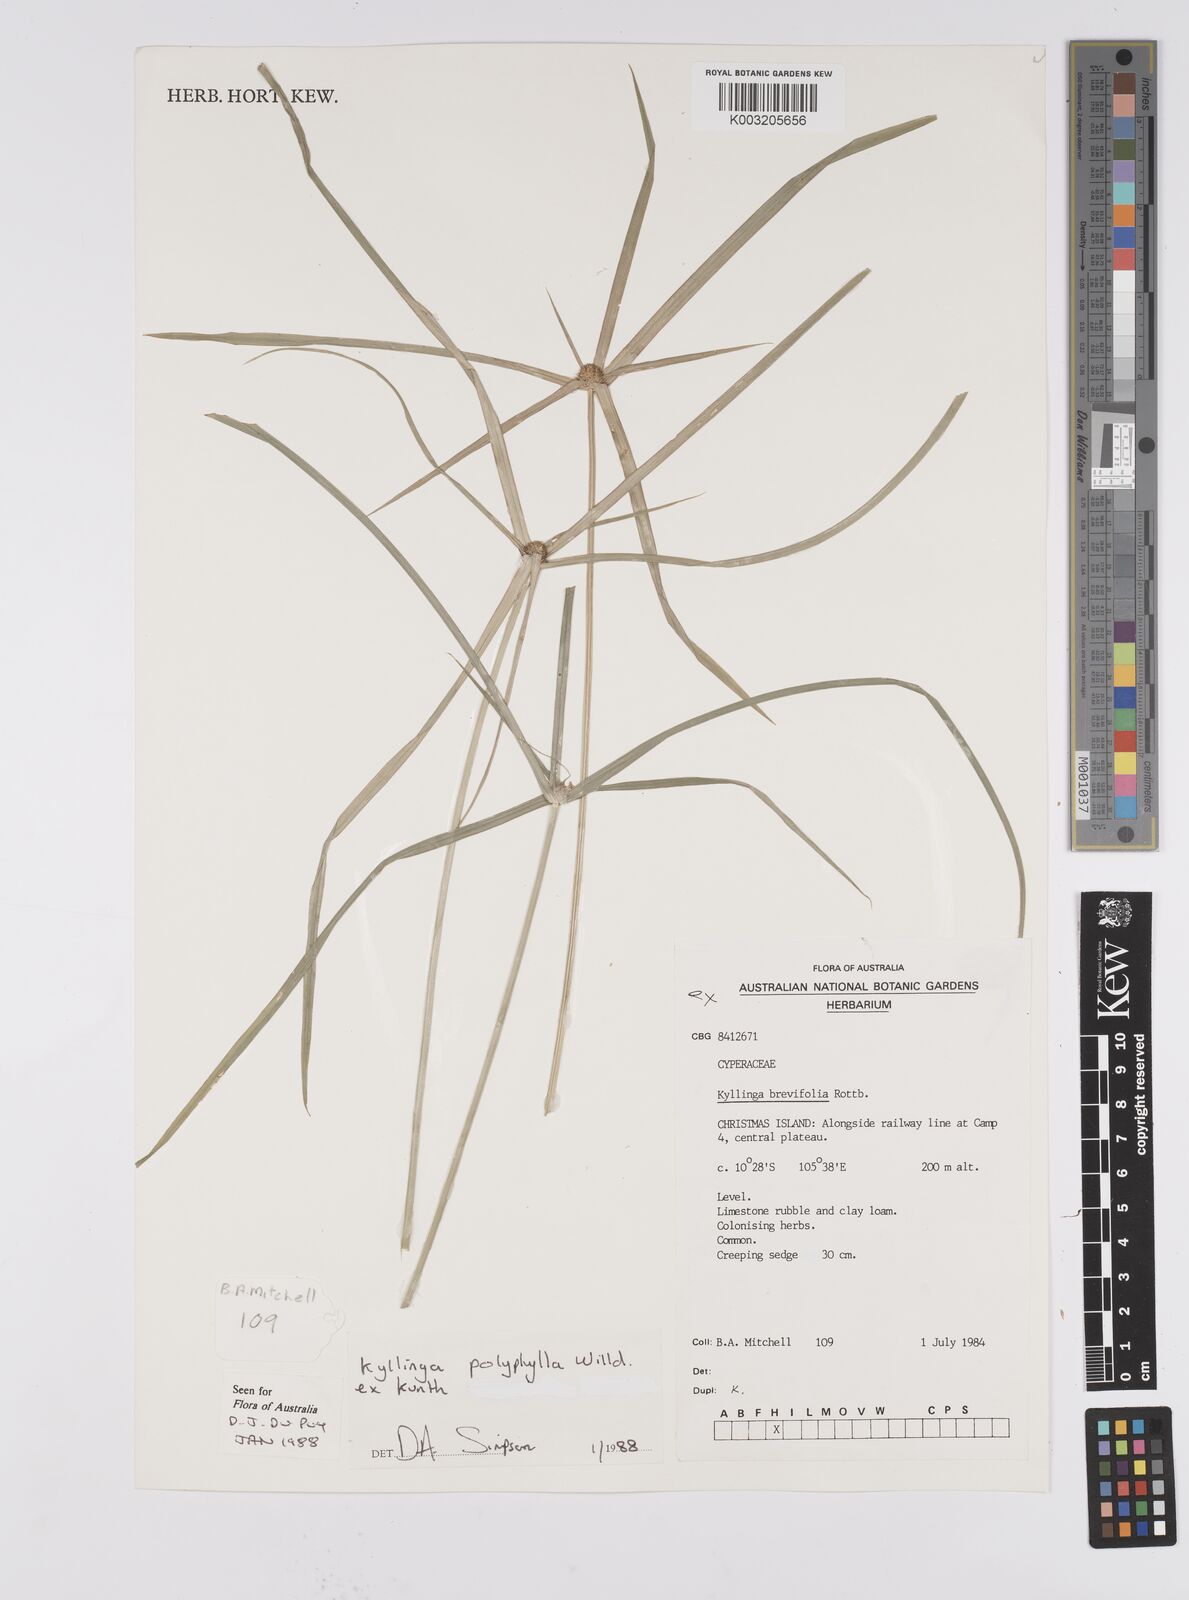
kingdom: Plantae
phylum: Tracheophyta
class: Liliopsida
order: Poales
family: Cyperaceae
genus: Cyperus
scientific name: Cyperus brevifolius
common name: Globe kyllinga
